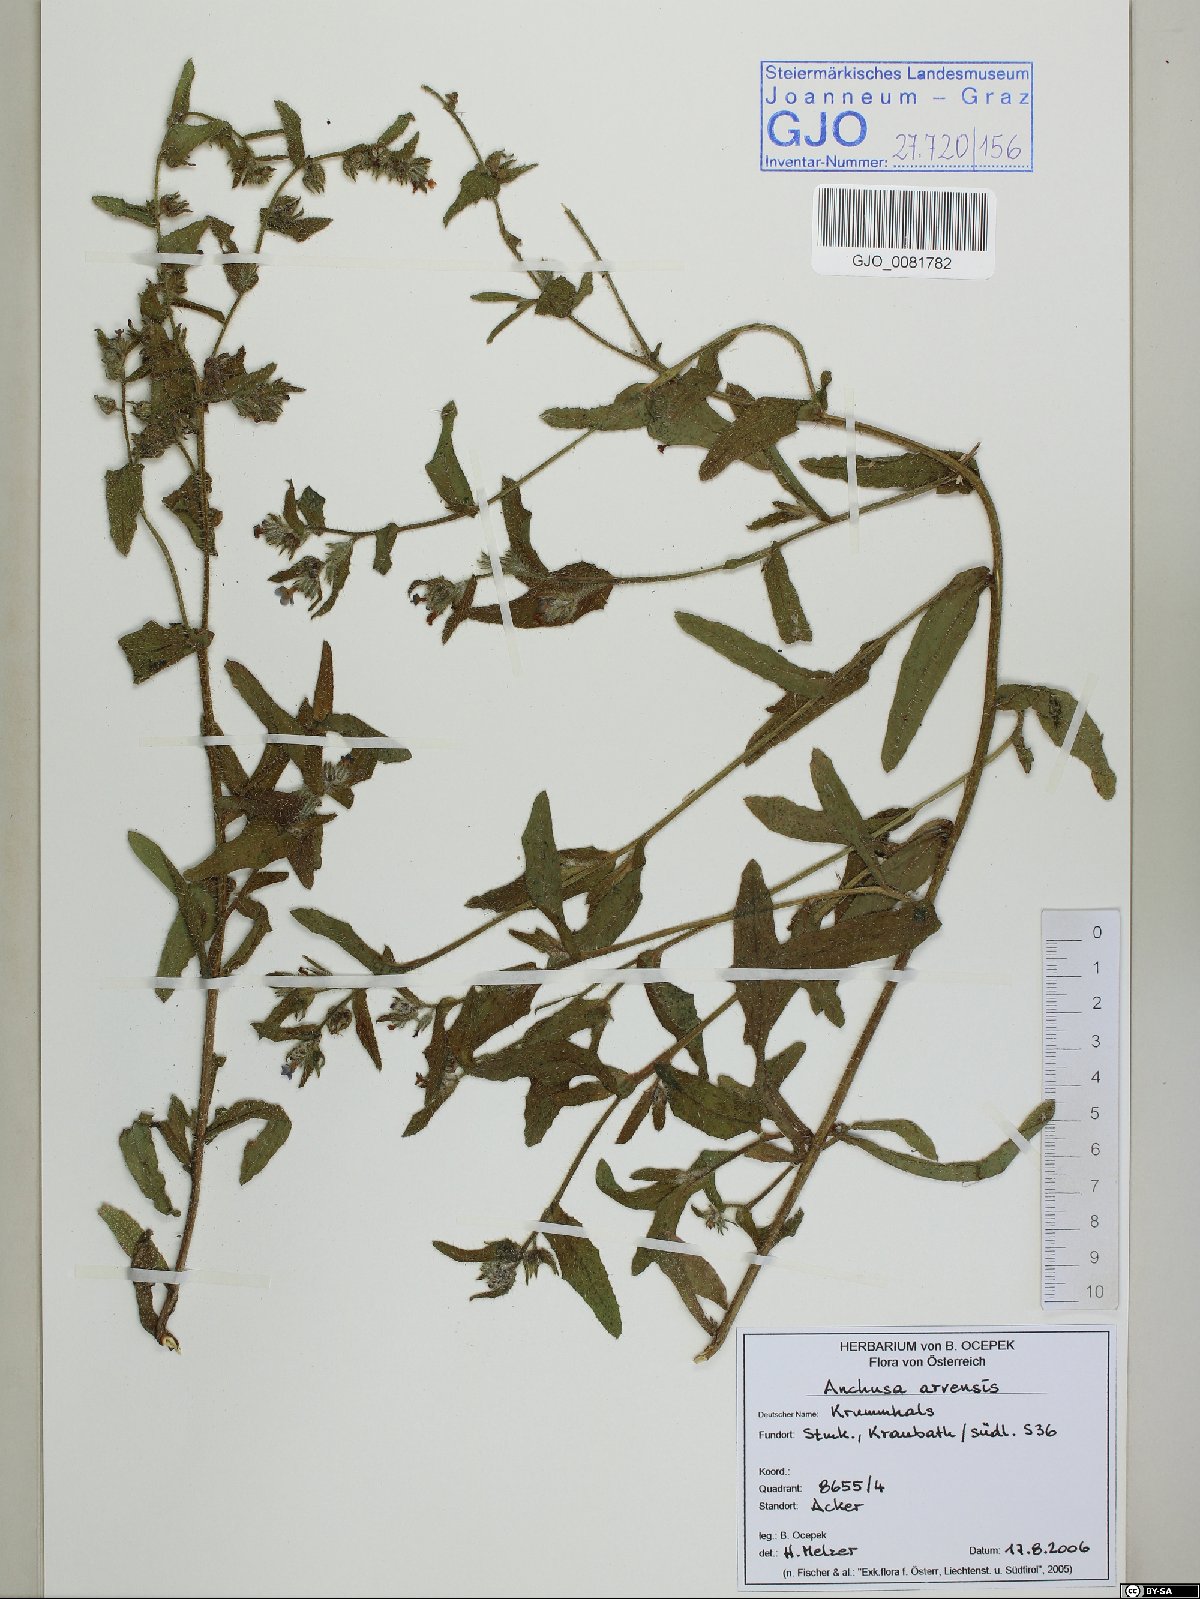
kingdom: Plantae
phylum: Tracheophyta
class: Magnoliopsida
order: Boraginales
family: Boraginaceae
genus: Lycopsis
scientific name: Lycopsis arvensis
